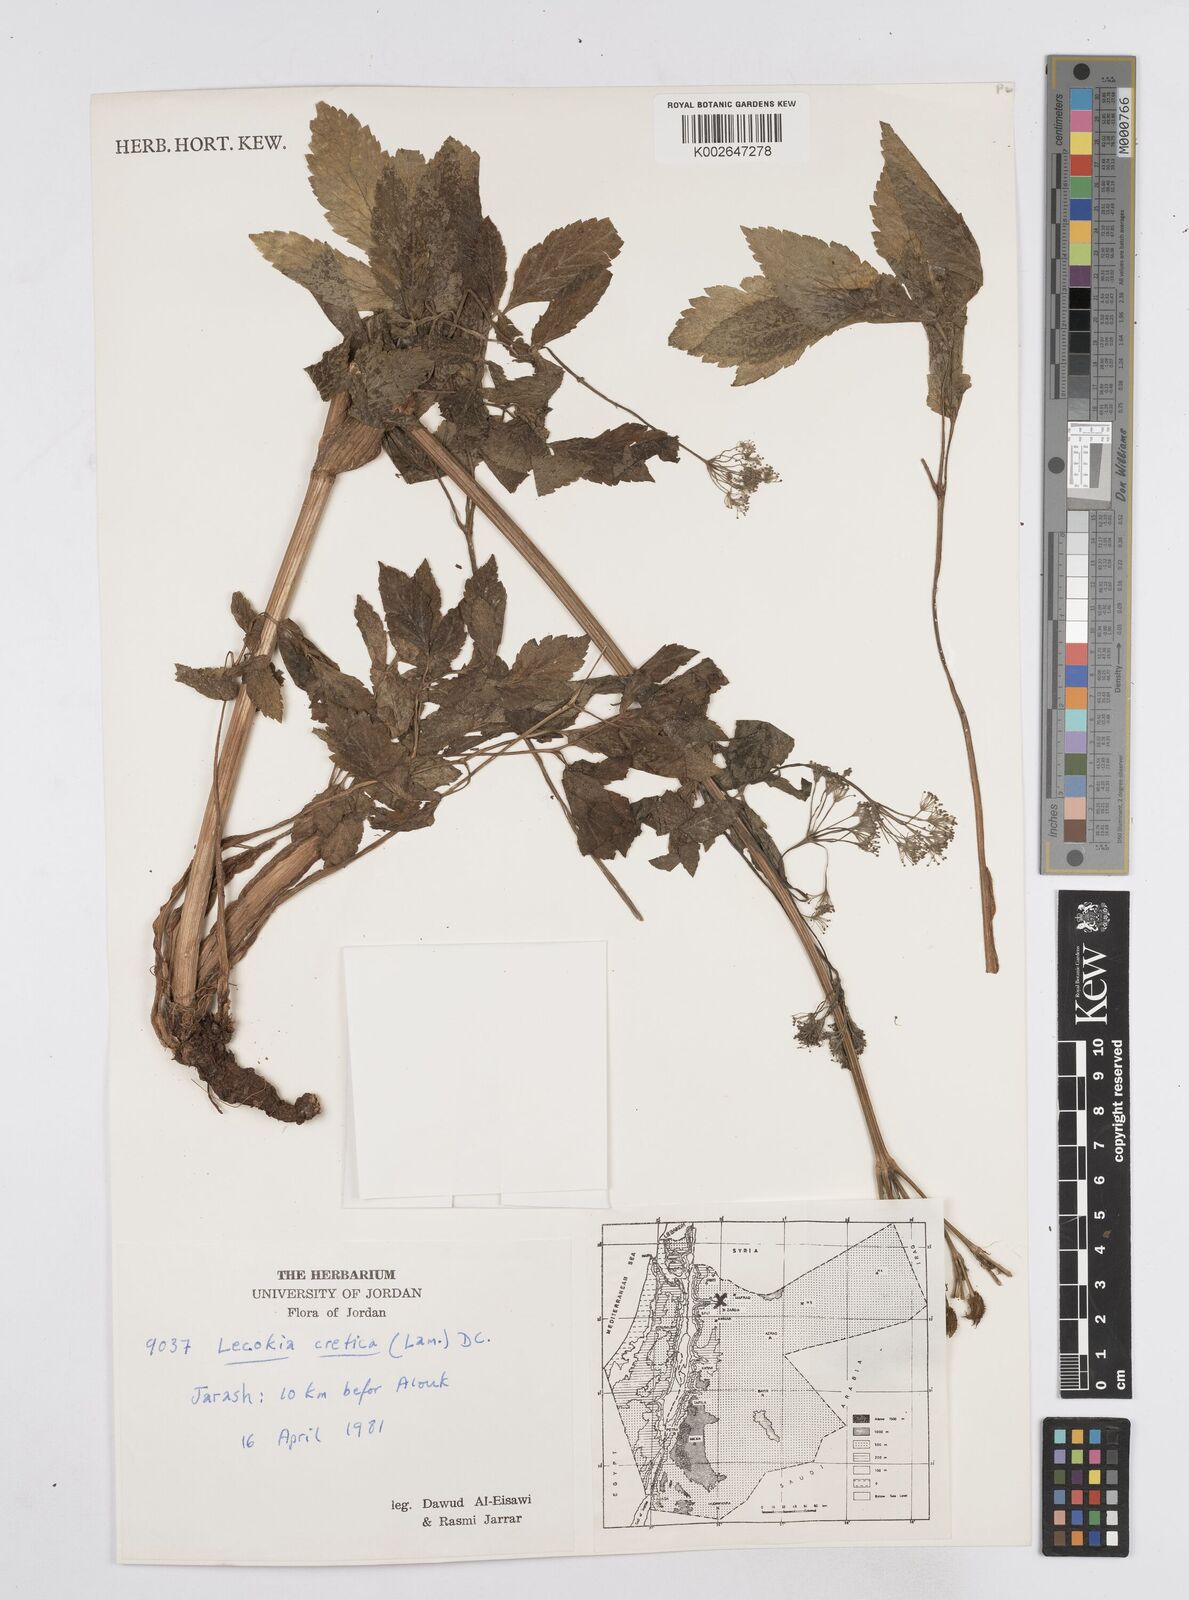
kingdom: Plantae
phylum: Tracheophyta
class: Magnoliopsida
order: Apiales
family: Apiaceae
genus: Lecokia
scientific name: Lecokia cretica
